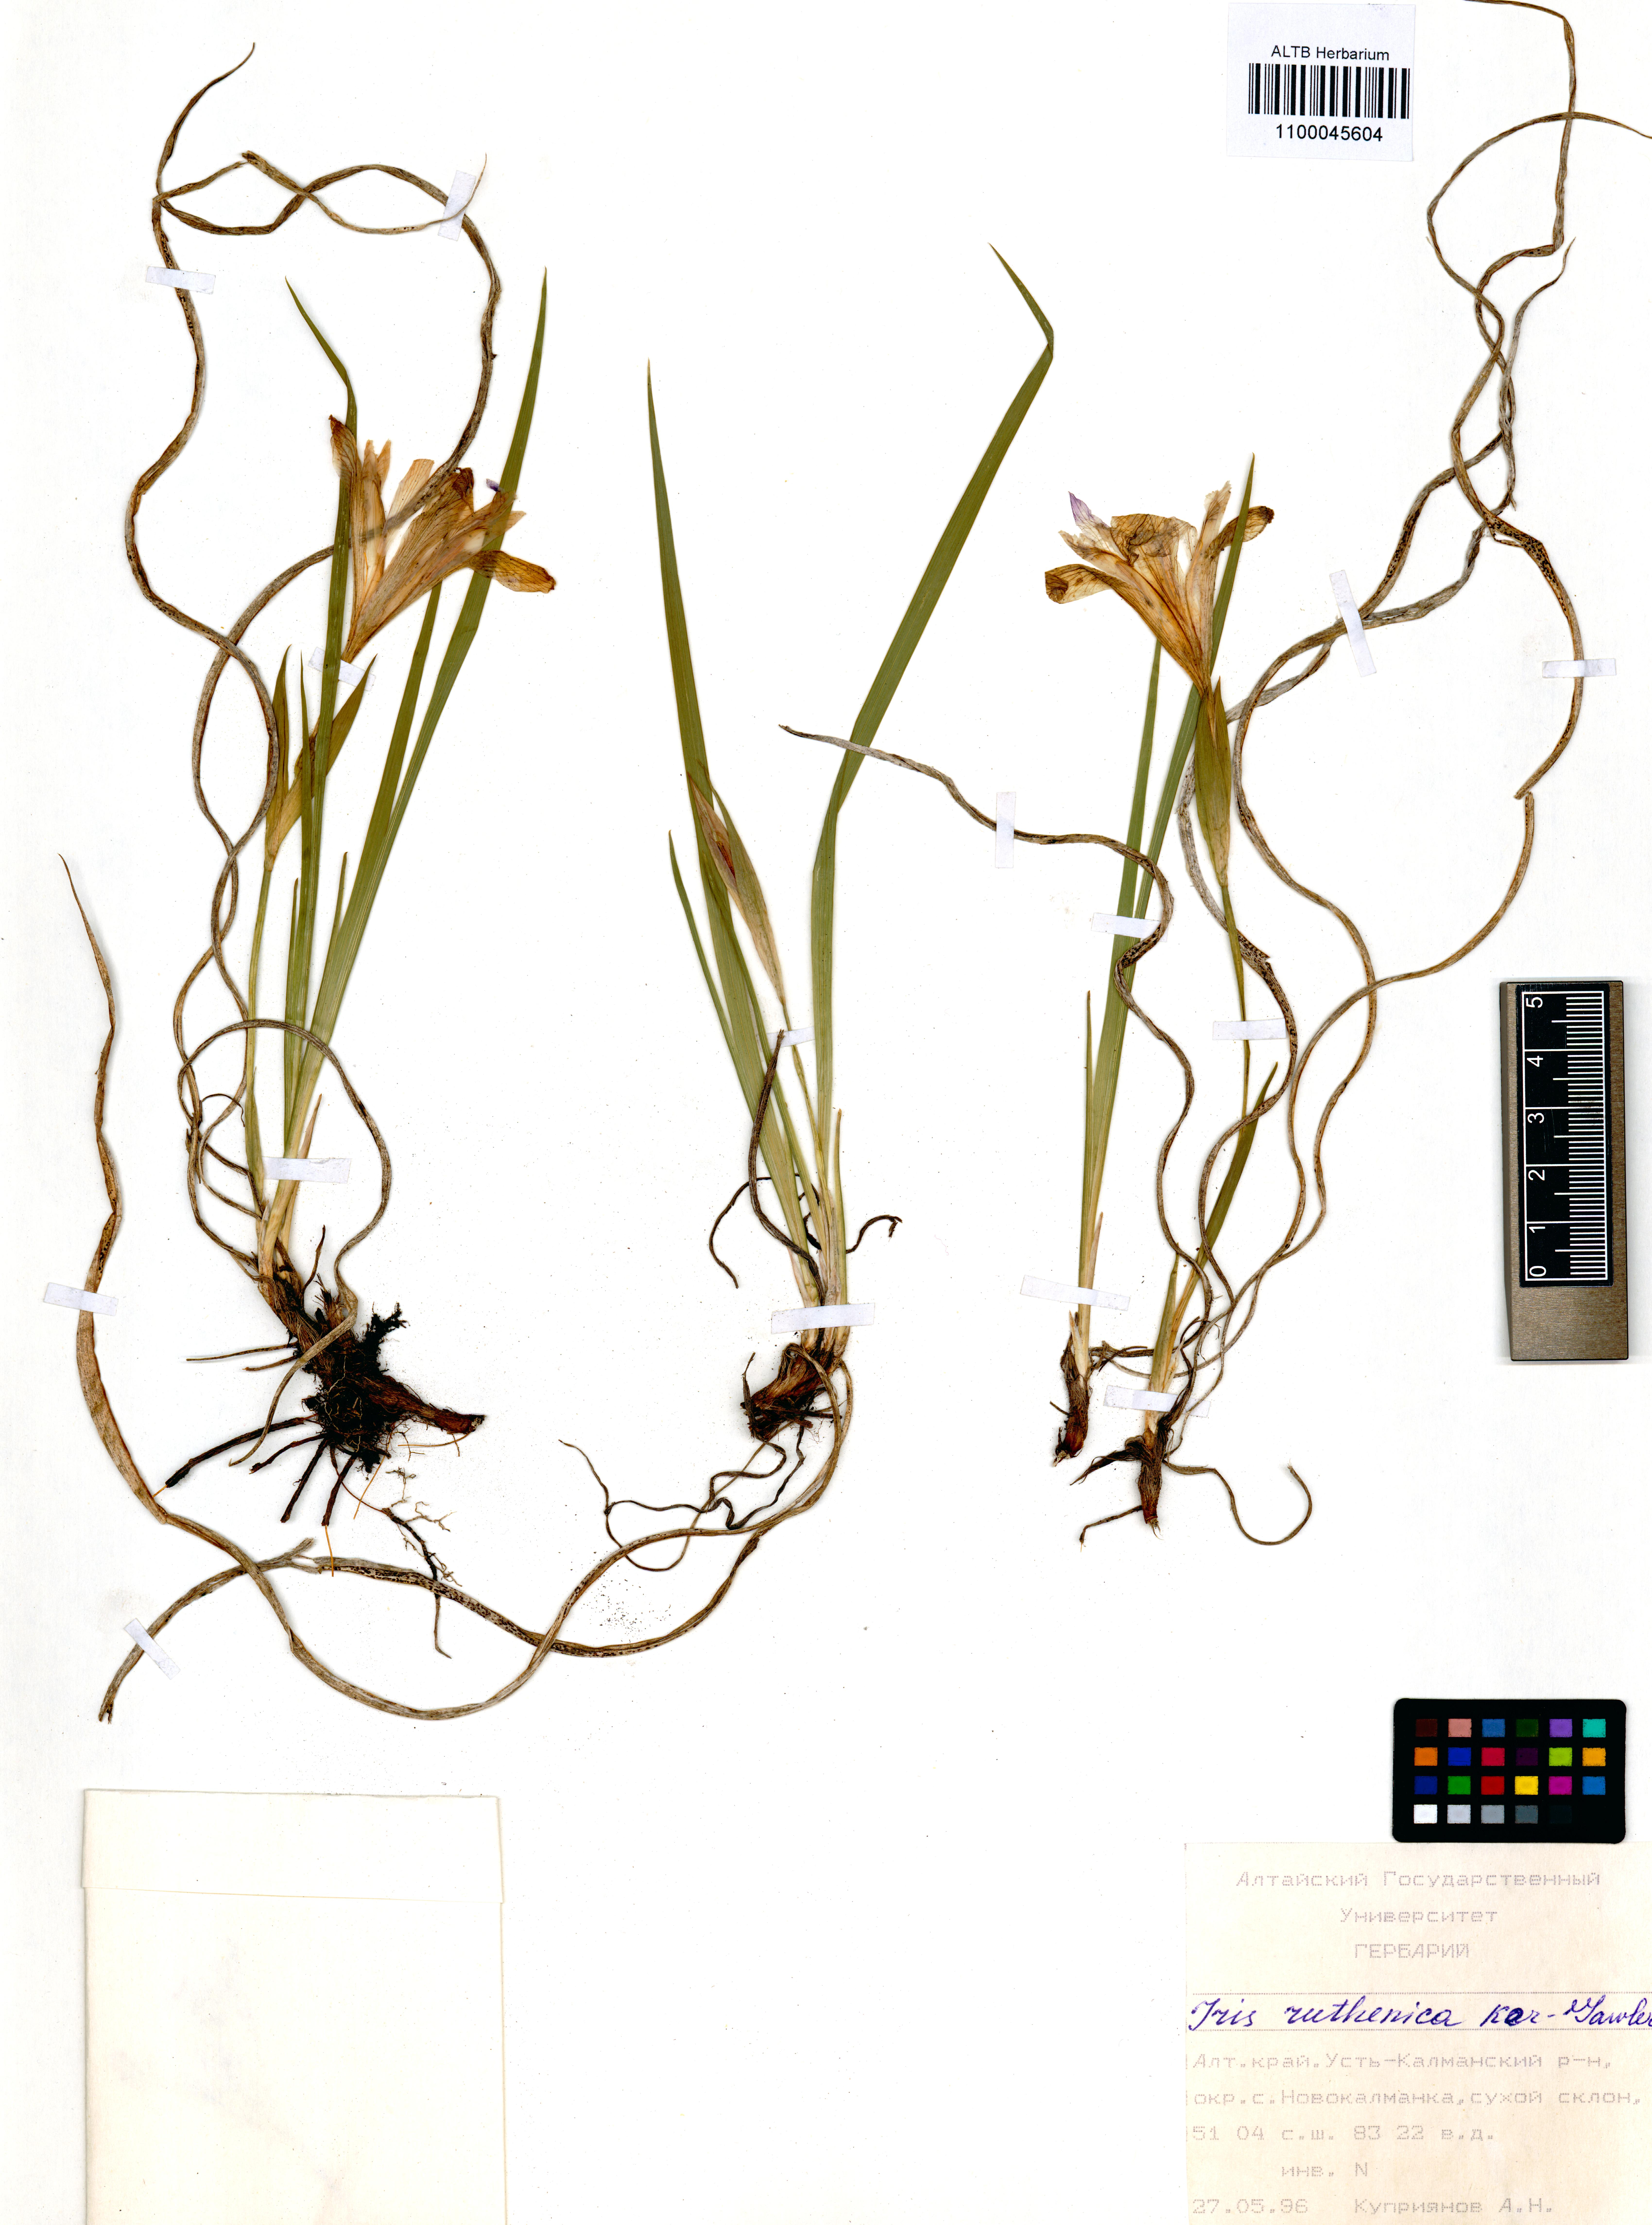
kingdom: Plantae
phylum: Tracheophyta
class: Liliopsida
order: Asparagales
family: Iridaceae
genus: Iris
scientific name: Iris ruthenica
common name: Purple-bract iris
